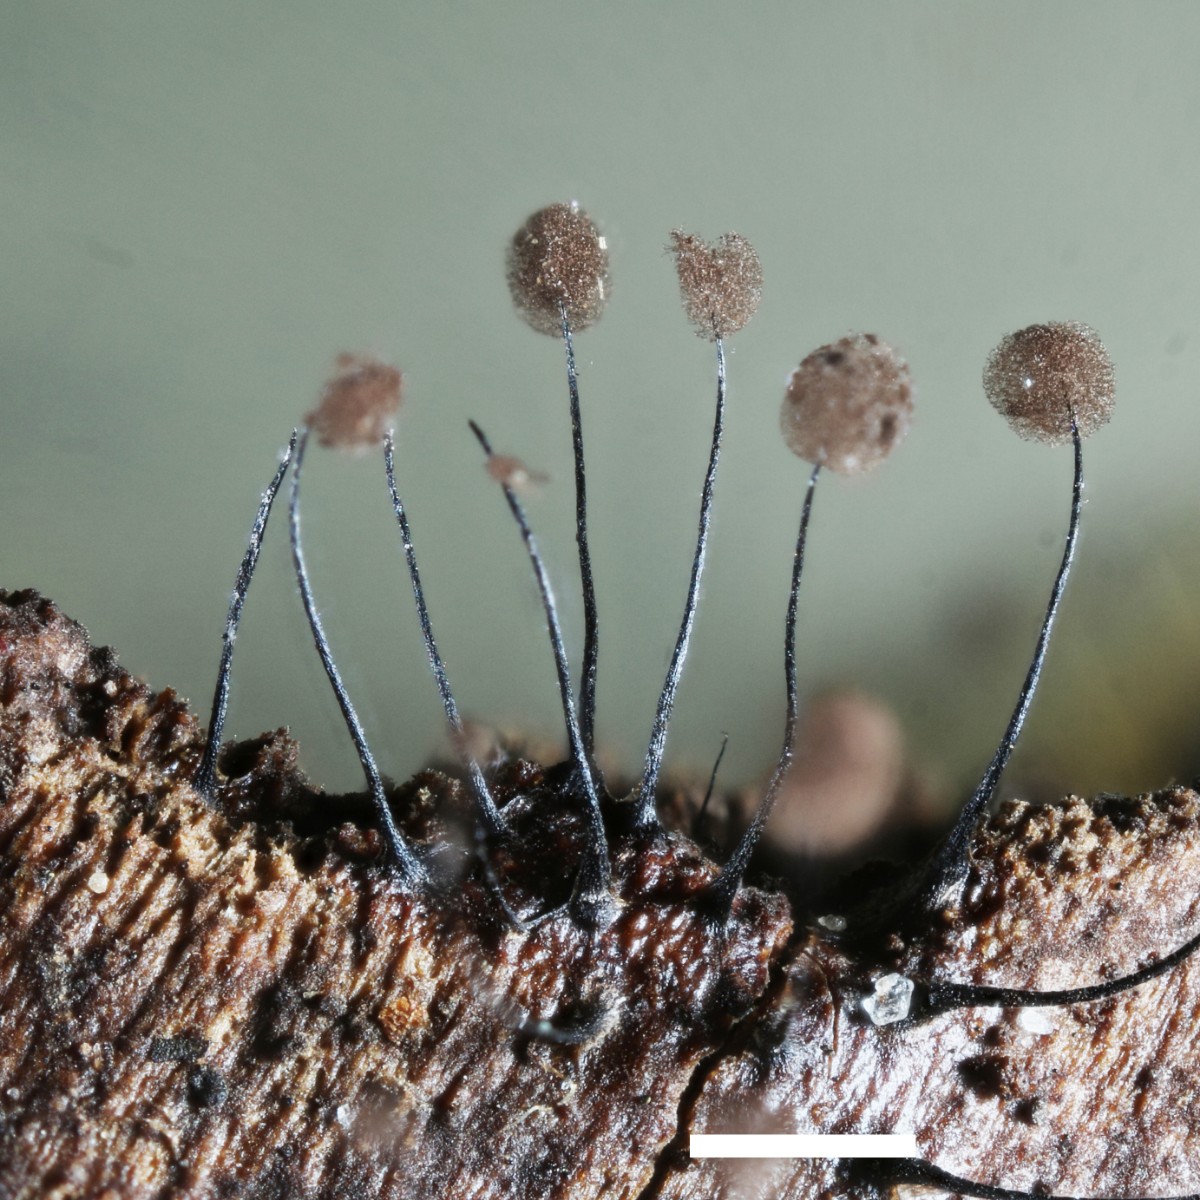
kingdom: Protozoa
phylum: Mycetozoa
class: Myxomycetes
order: Stemonitidales
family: Stemonitidaceae
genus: Comatricha
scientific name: Comatricha nigra
